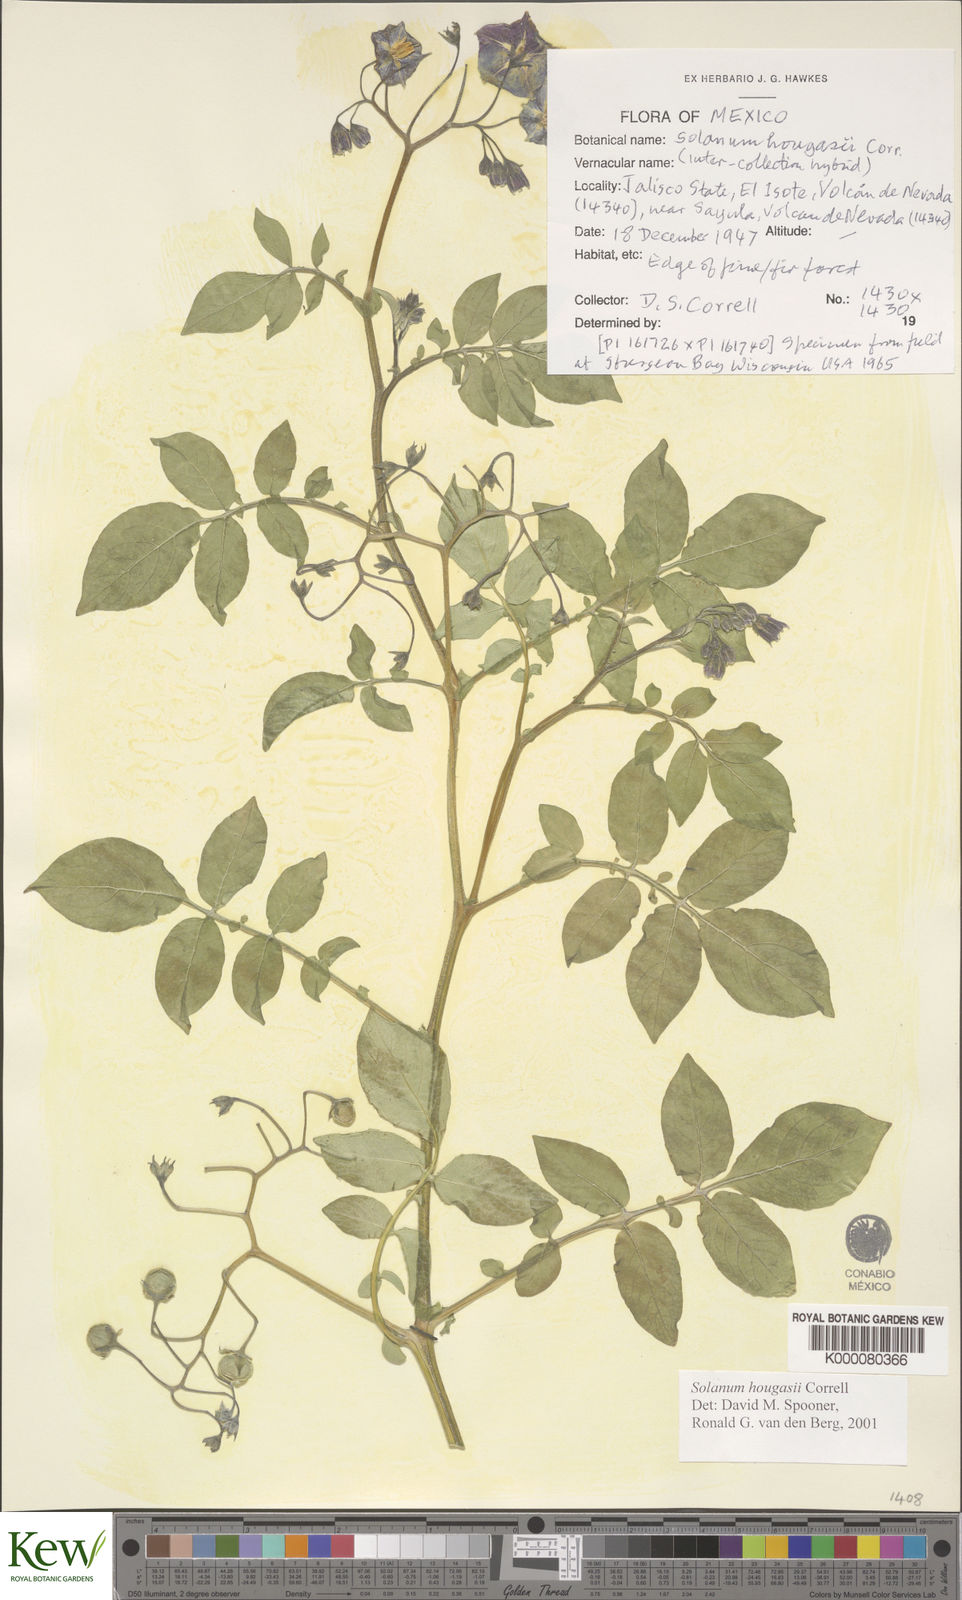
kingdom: Plantae
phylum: Tracheophyta
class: Magnoliopsida
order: Solanales
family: Solanaceae
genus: Solanum
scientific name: Solanum hougasii
